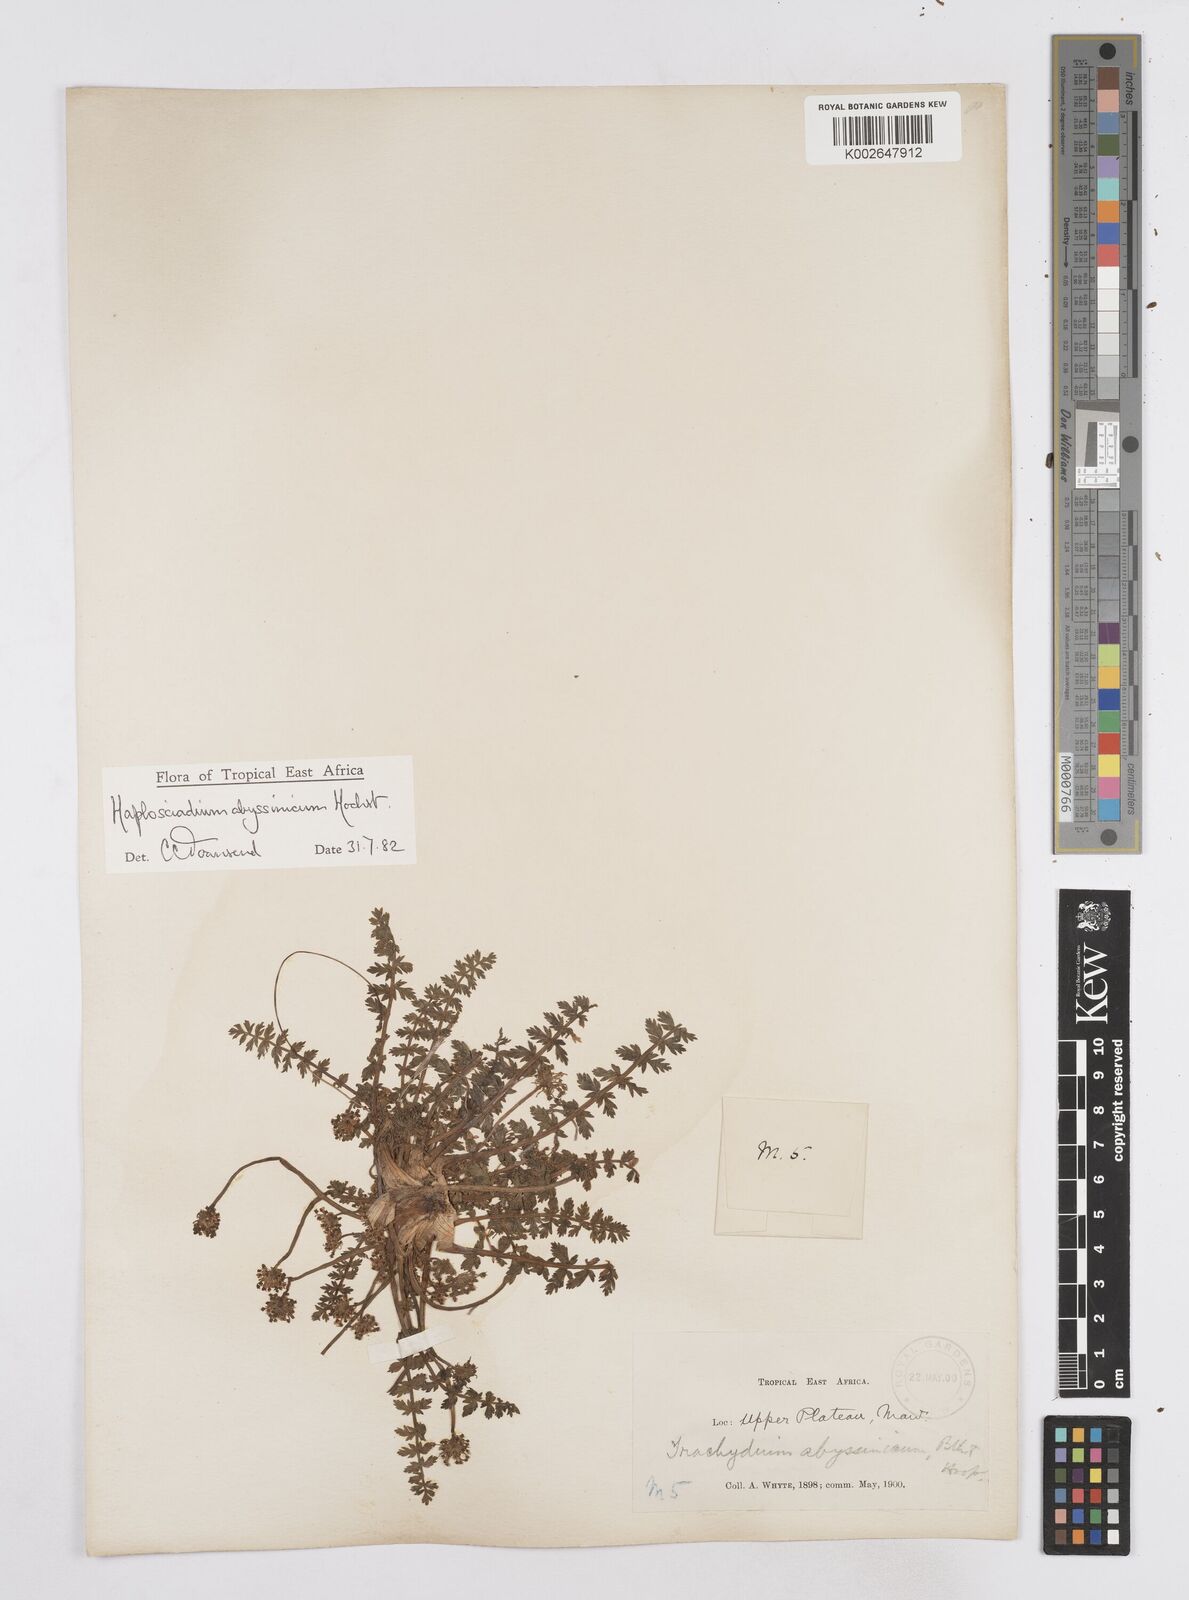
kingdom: Plantae
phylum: Tracheophyta
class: Magnoliopsida
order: Apiales
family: Apiaceae
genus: Haplosciadium
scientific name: Haplosciadium abyssinicum
